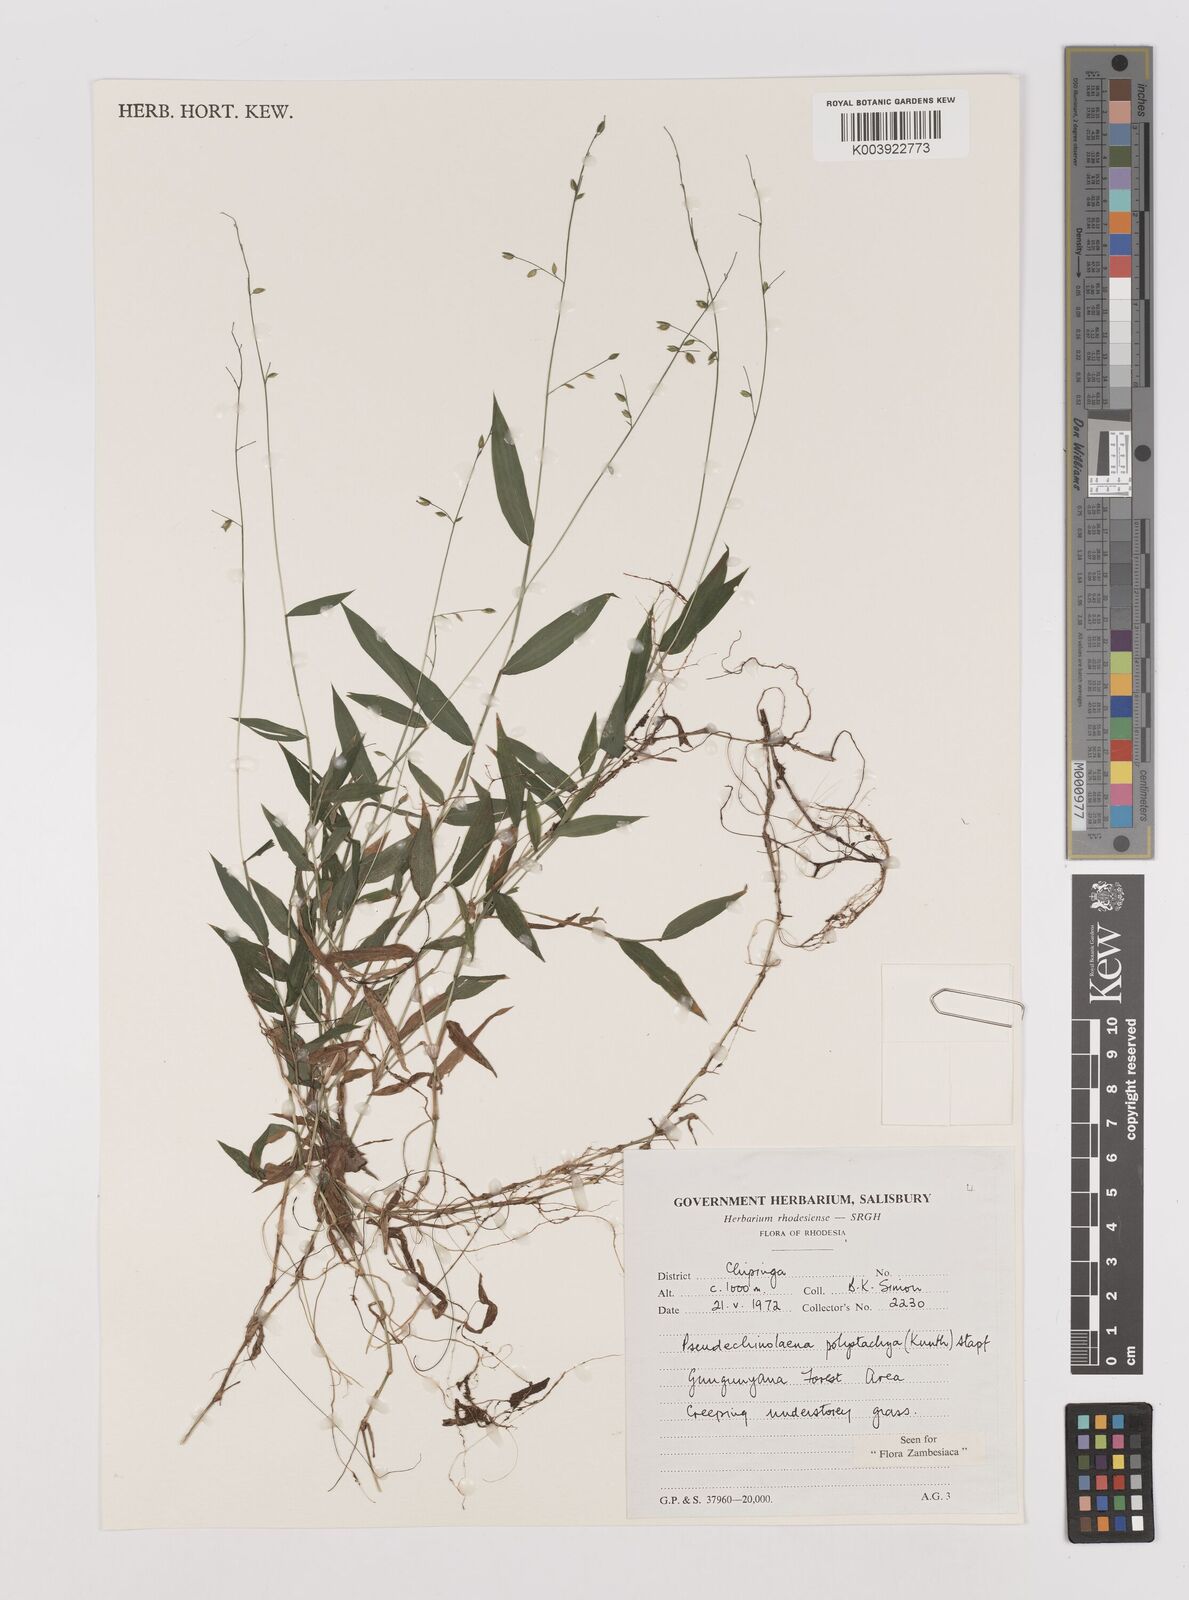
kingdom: Plantae
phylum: Tracheophyta
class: Liliopsida
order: Poales
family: Poaceae
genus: Pseudechinolaena
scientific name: Pseudechinolaena polystachya
